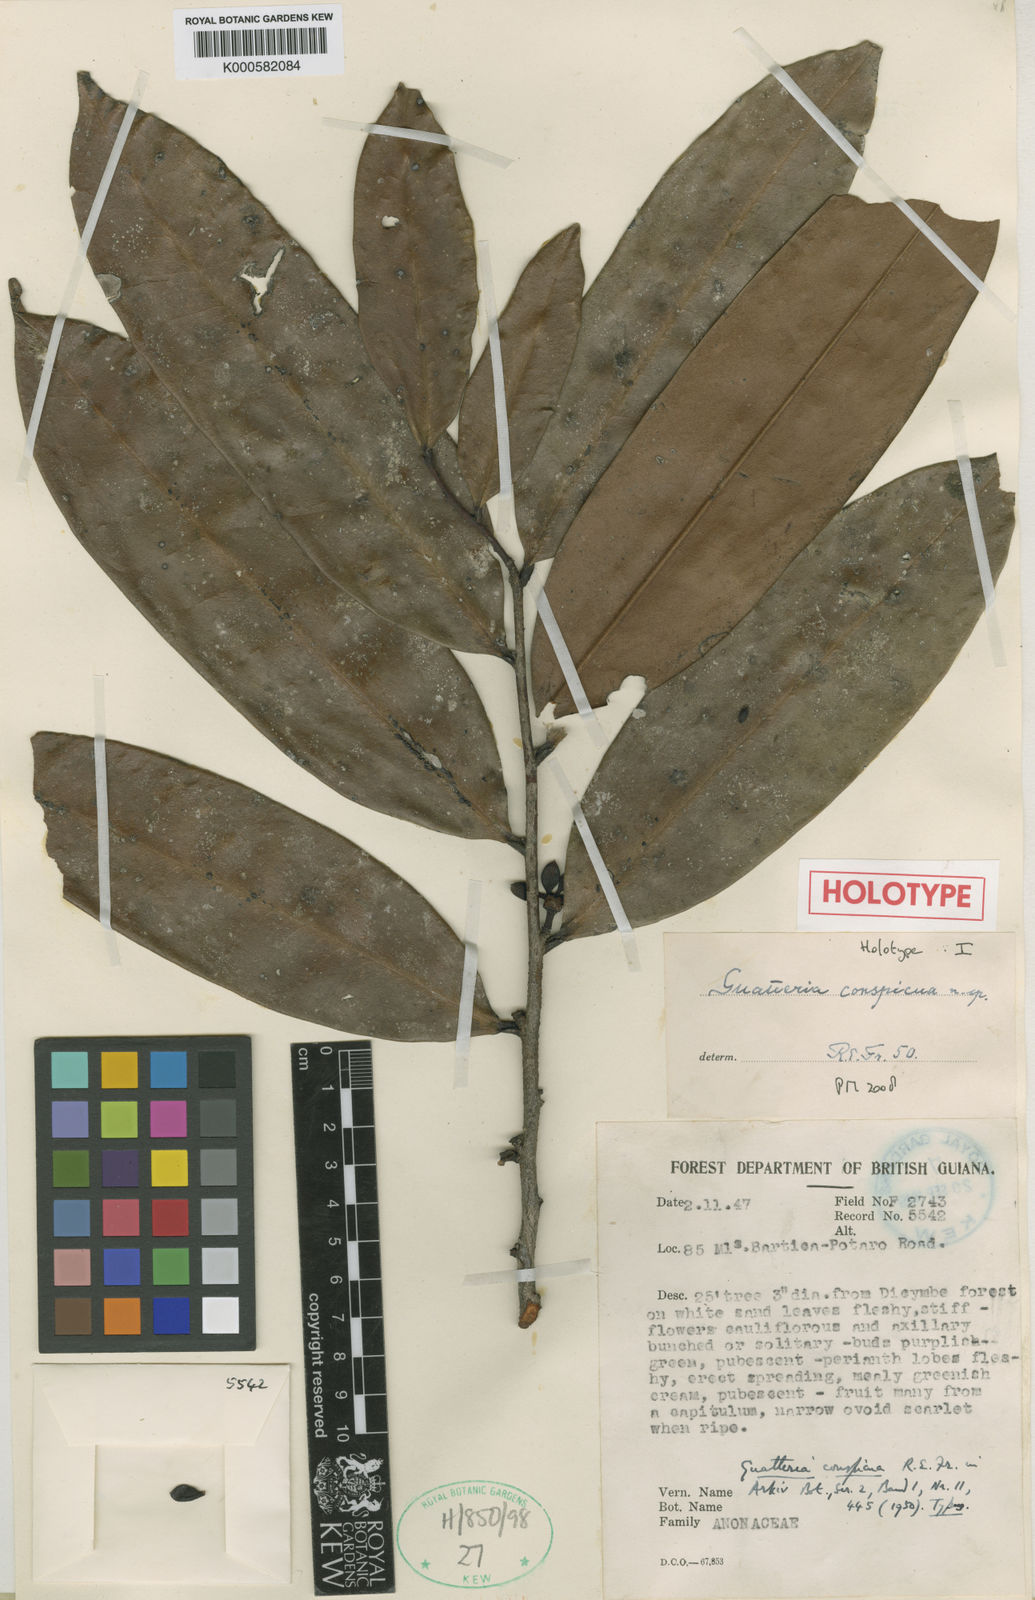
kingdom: Plantae
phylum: Tracheophyta
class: Magnoliopsida
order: Magnoliales
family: Annonaceae
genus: Guatteria
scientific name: Guatteria conspicua
